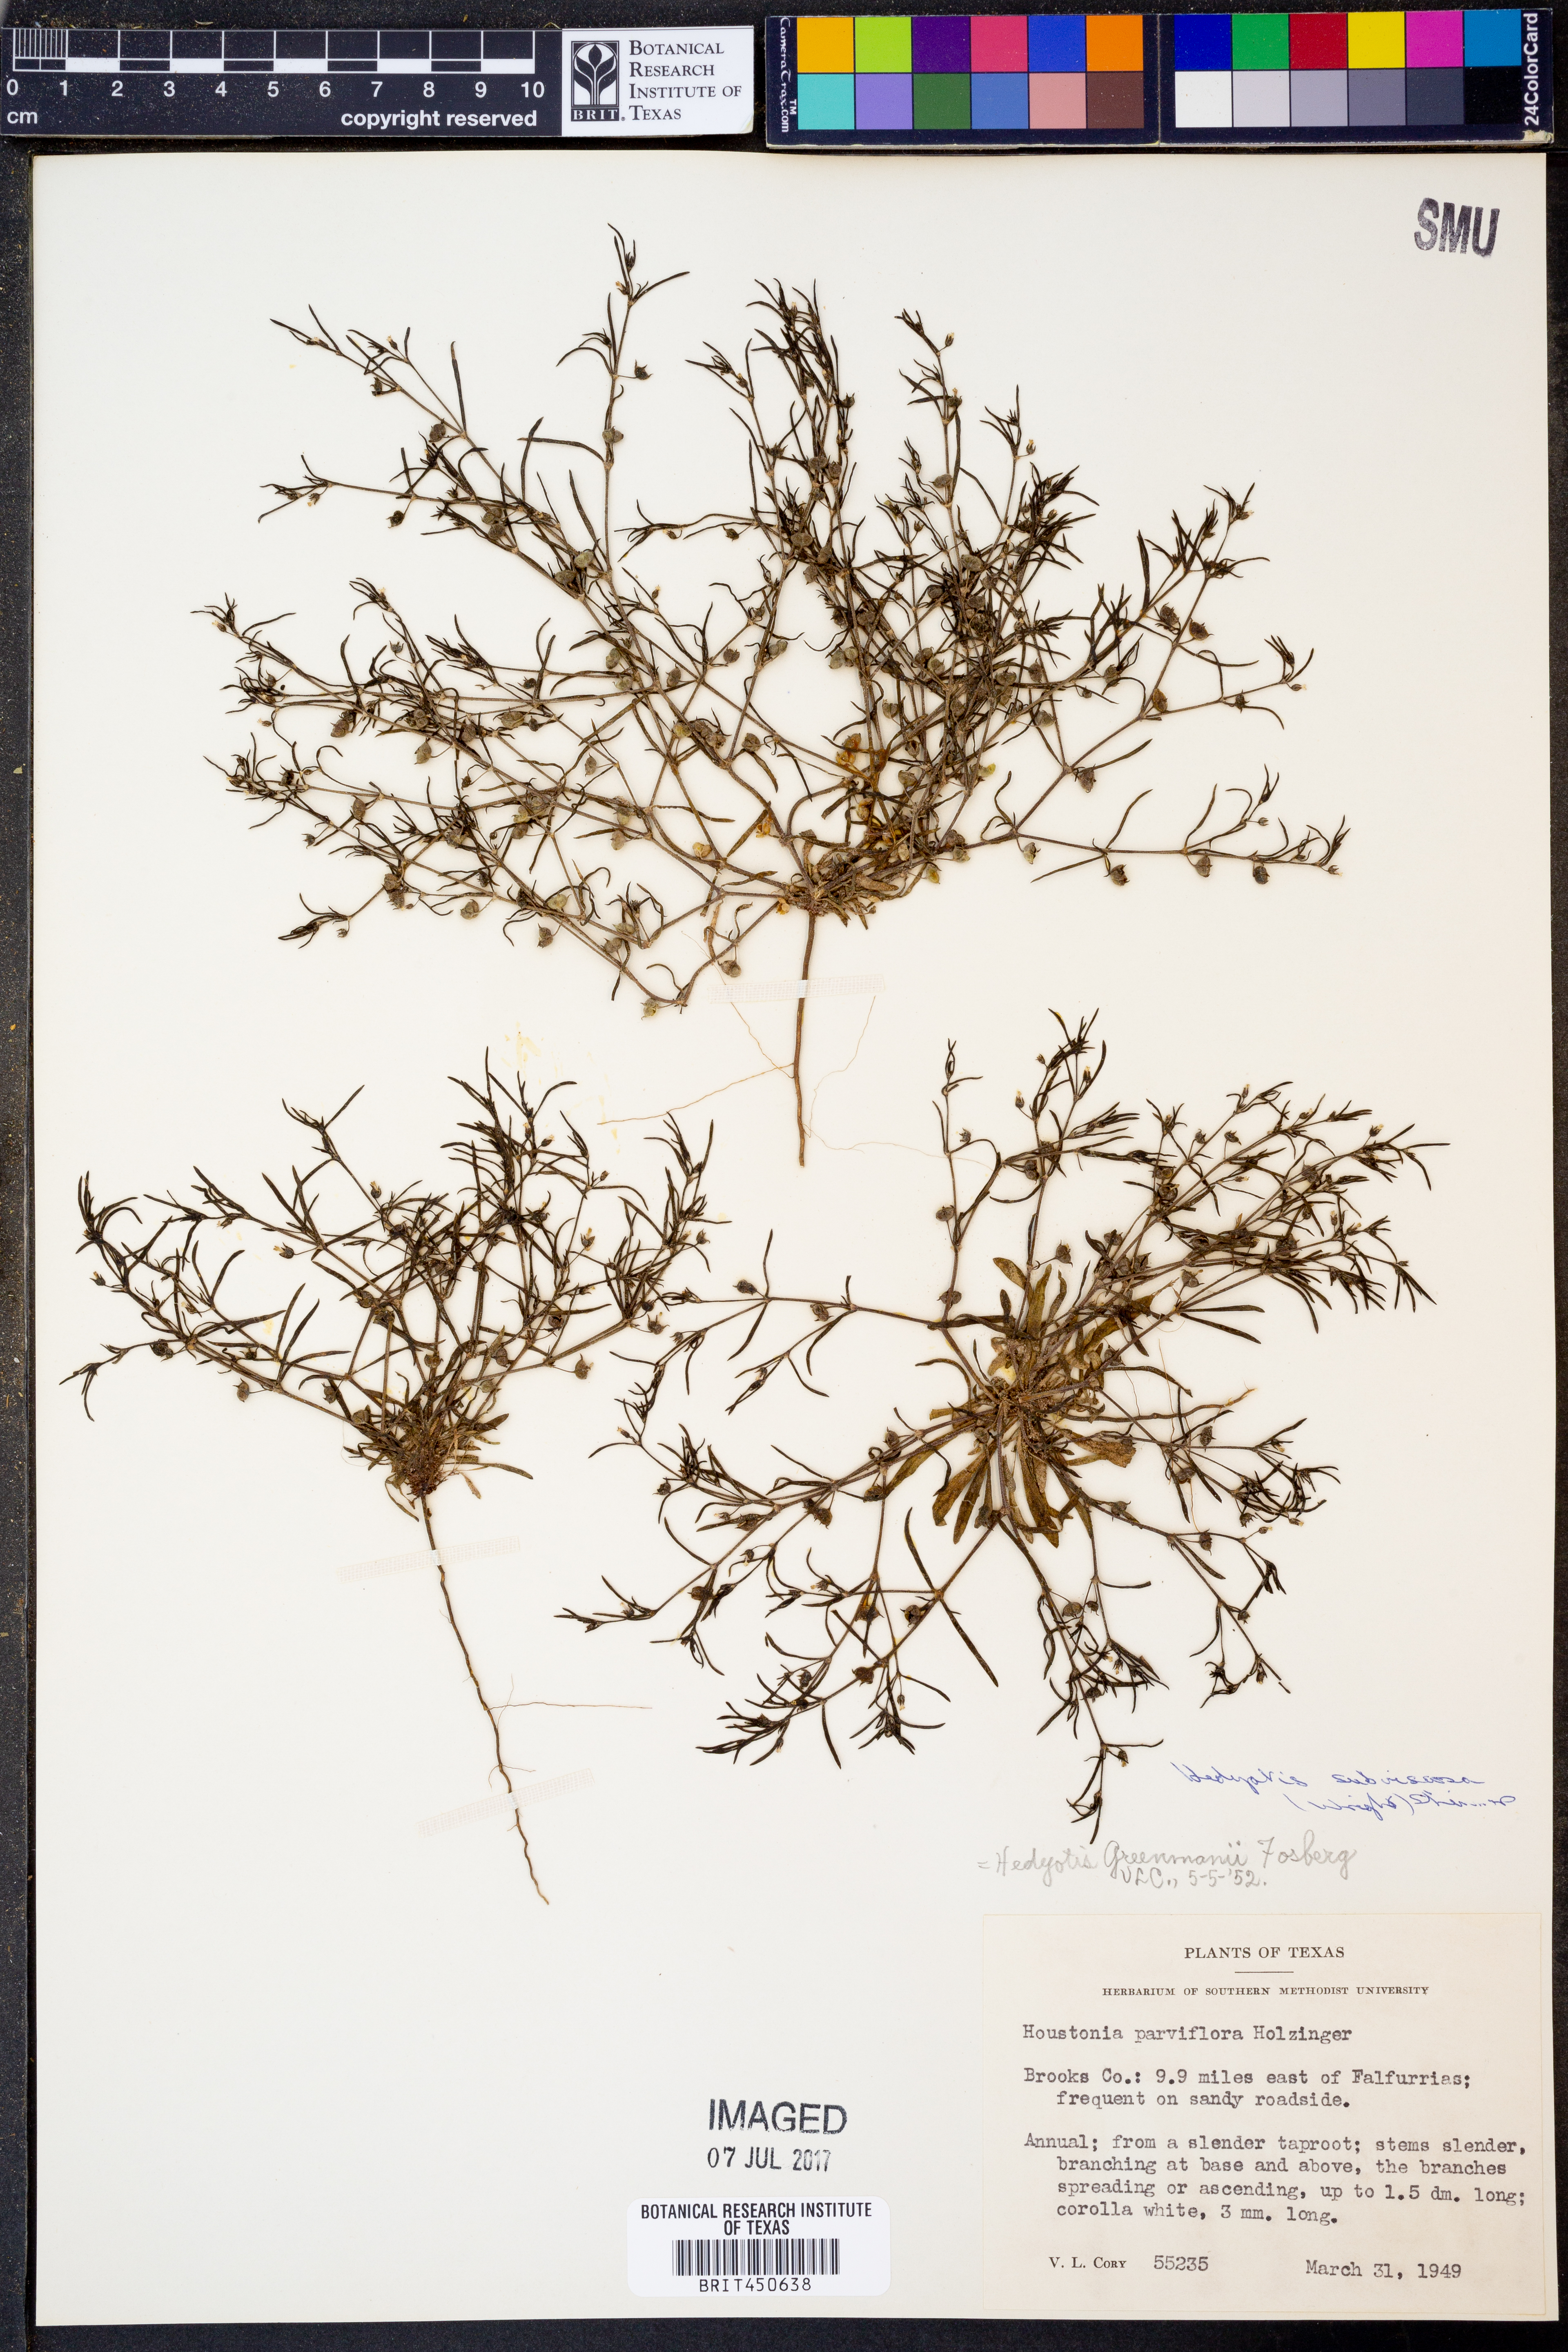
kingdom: Plantae
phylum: Tracheophyta
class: Magnoliopsida
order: Gentianales
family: Rubiaceae
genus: Houstonia
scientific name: Houstonia subviscosa
